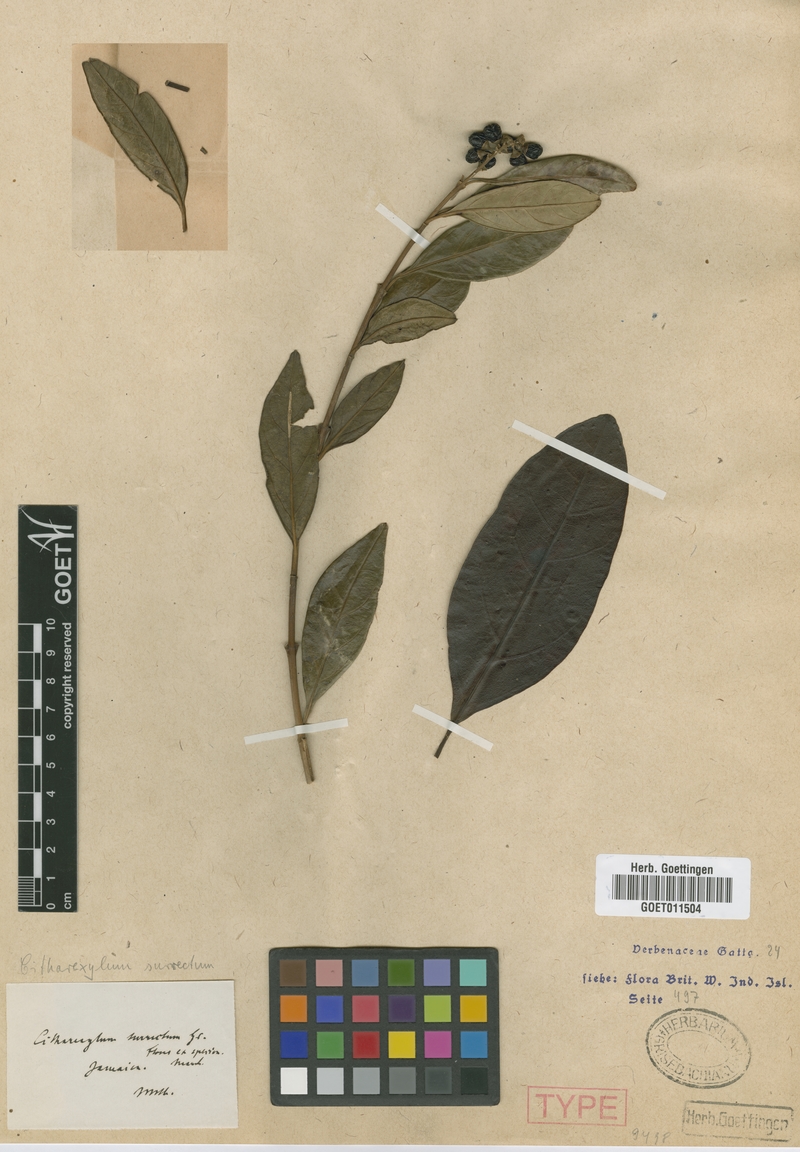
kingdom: Plantae
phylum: Tracheophyta
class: Magnoliopsida
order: Lamiales
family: Verbenaceae
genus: Citharexylum
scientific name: Citharexylum spinosum
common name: Fiddlewood
